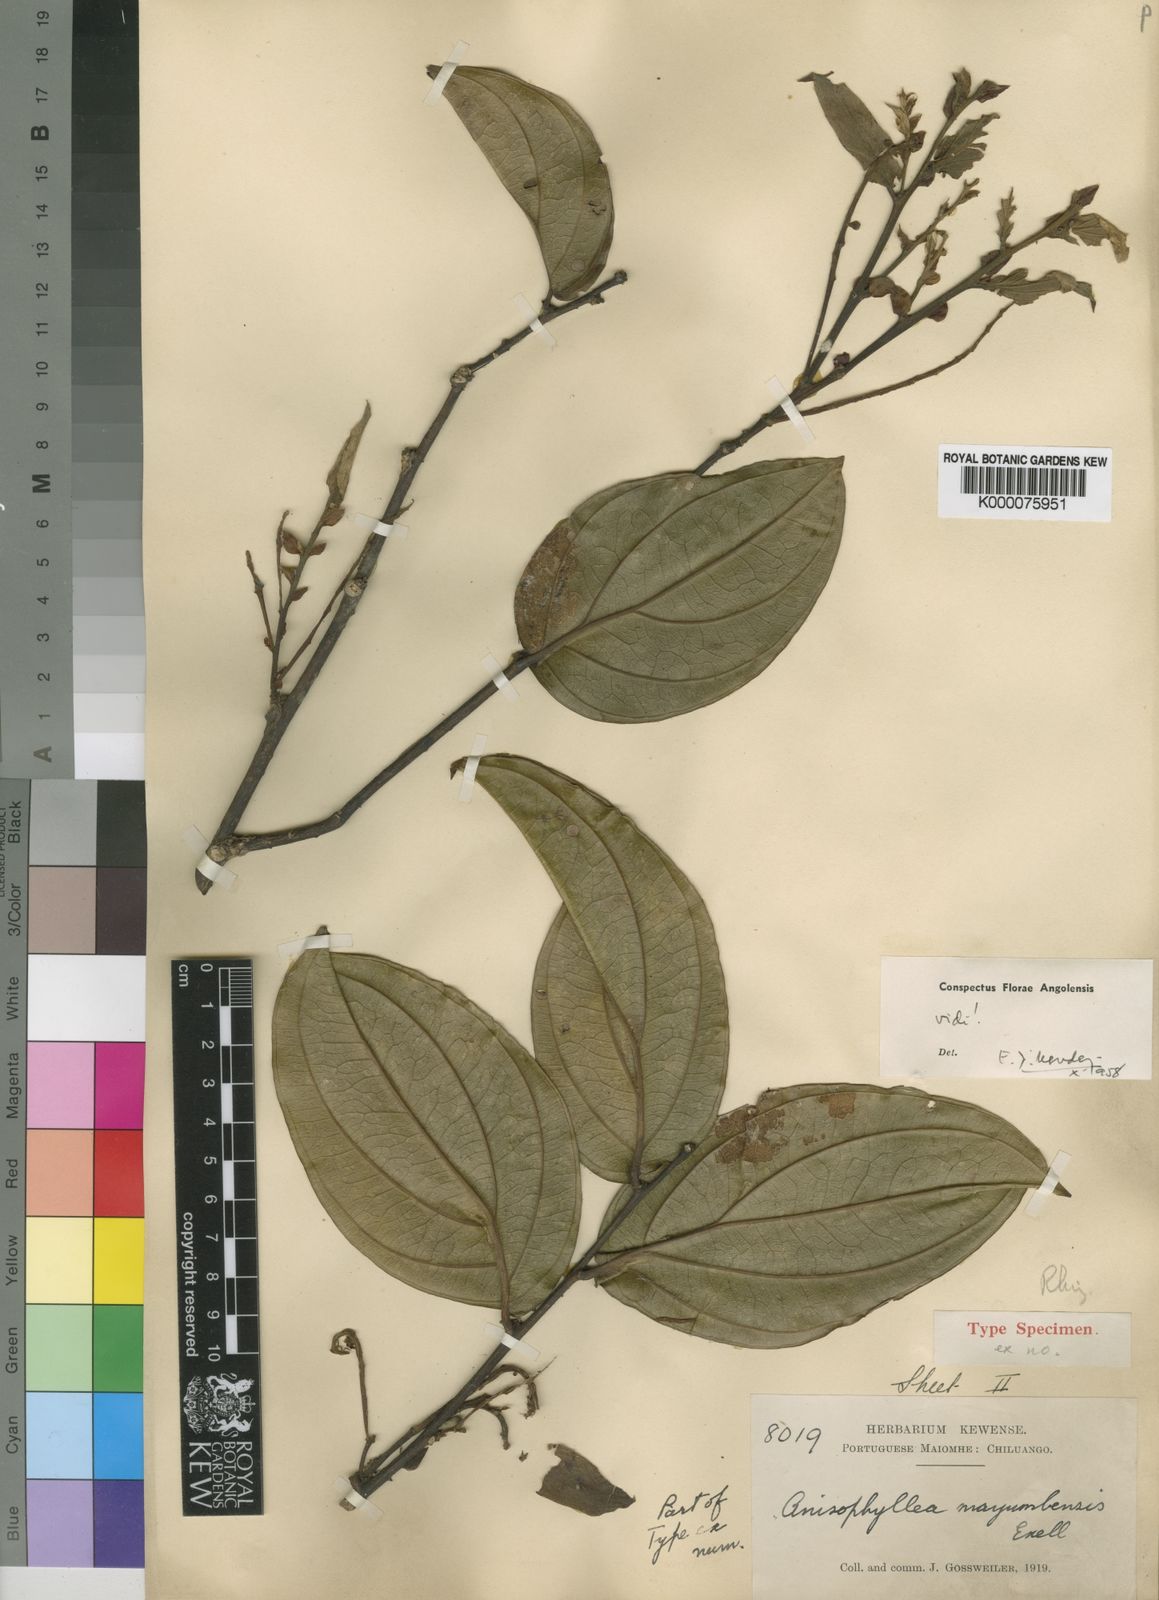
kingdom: Plantae
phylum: Tracheophyta
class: Magnoliopsida
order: Cucurbitales
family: Anisophylleaceae
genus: Anisophyllea
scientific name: Anisophyllea mayumbensis
